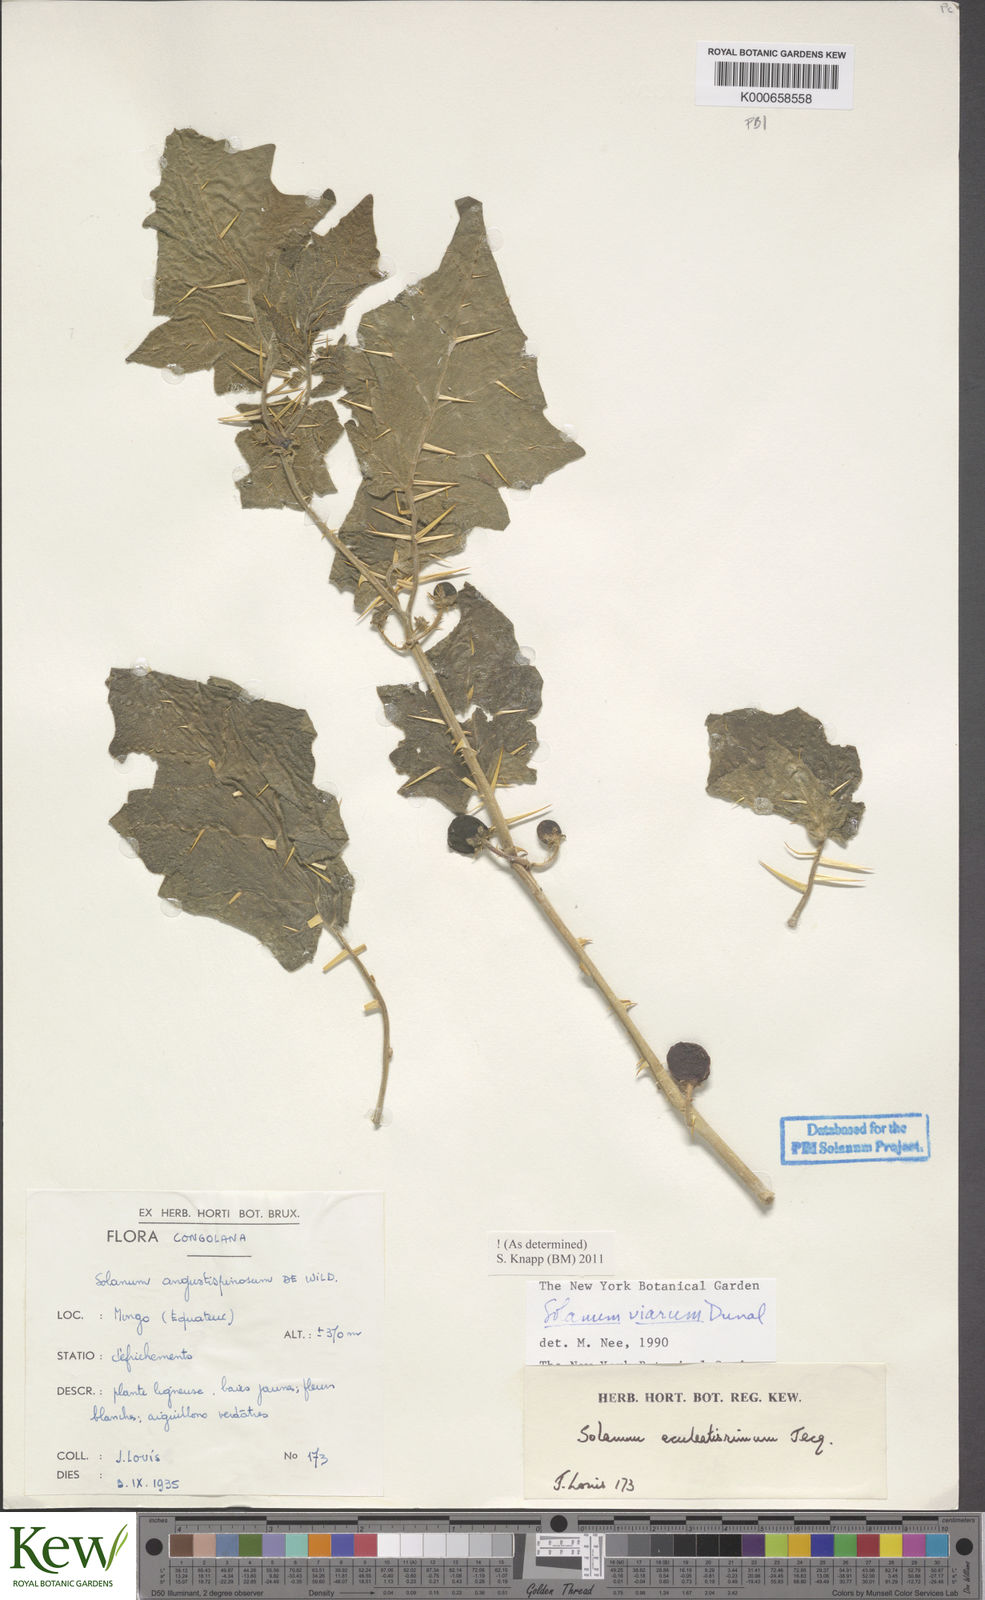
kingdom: Plantae
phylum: Tracheophyta
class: Magnoliopsida
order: Solanales
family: Solanaceae
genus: Solanum
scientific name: Solanum viarum
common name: Tropical soda apple
